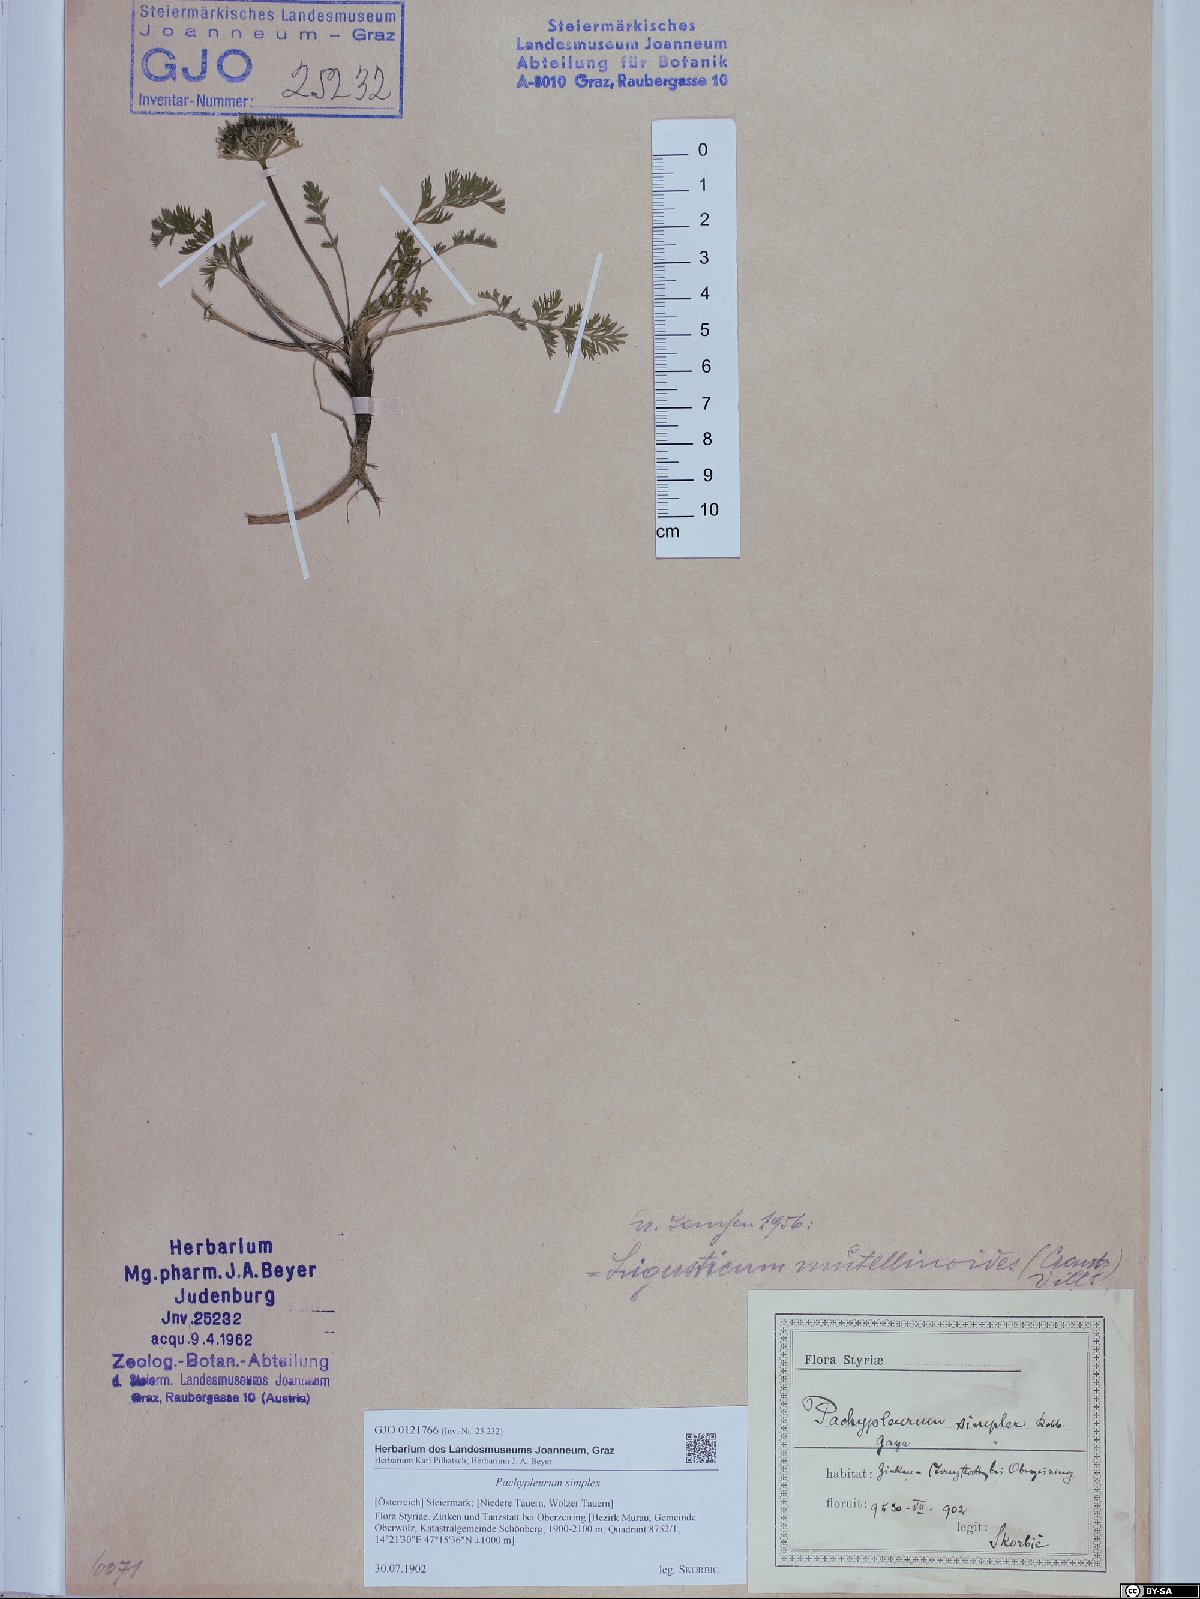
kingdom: Plantae
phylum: Tracheophyta
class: Magnoliopsida
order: Apiales
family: Apiaceae
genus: Pachypleurum
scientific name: Pachypleurum mutellinoides
